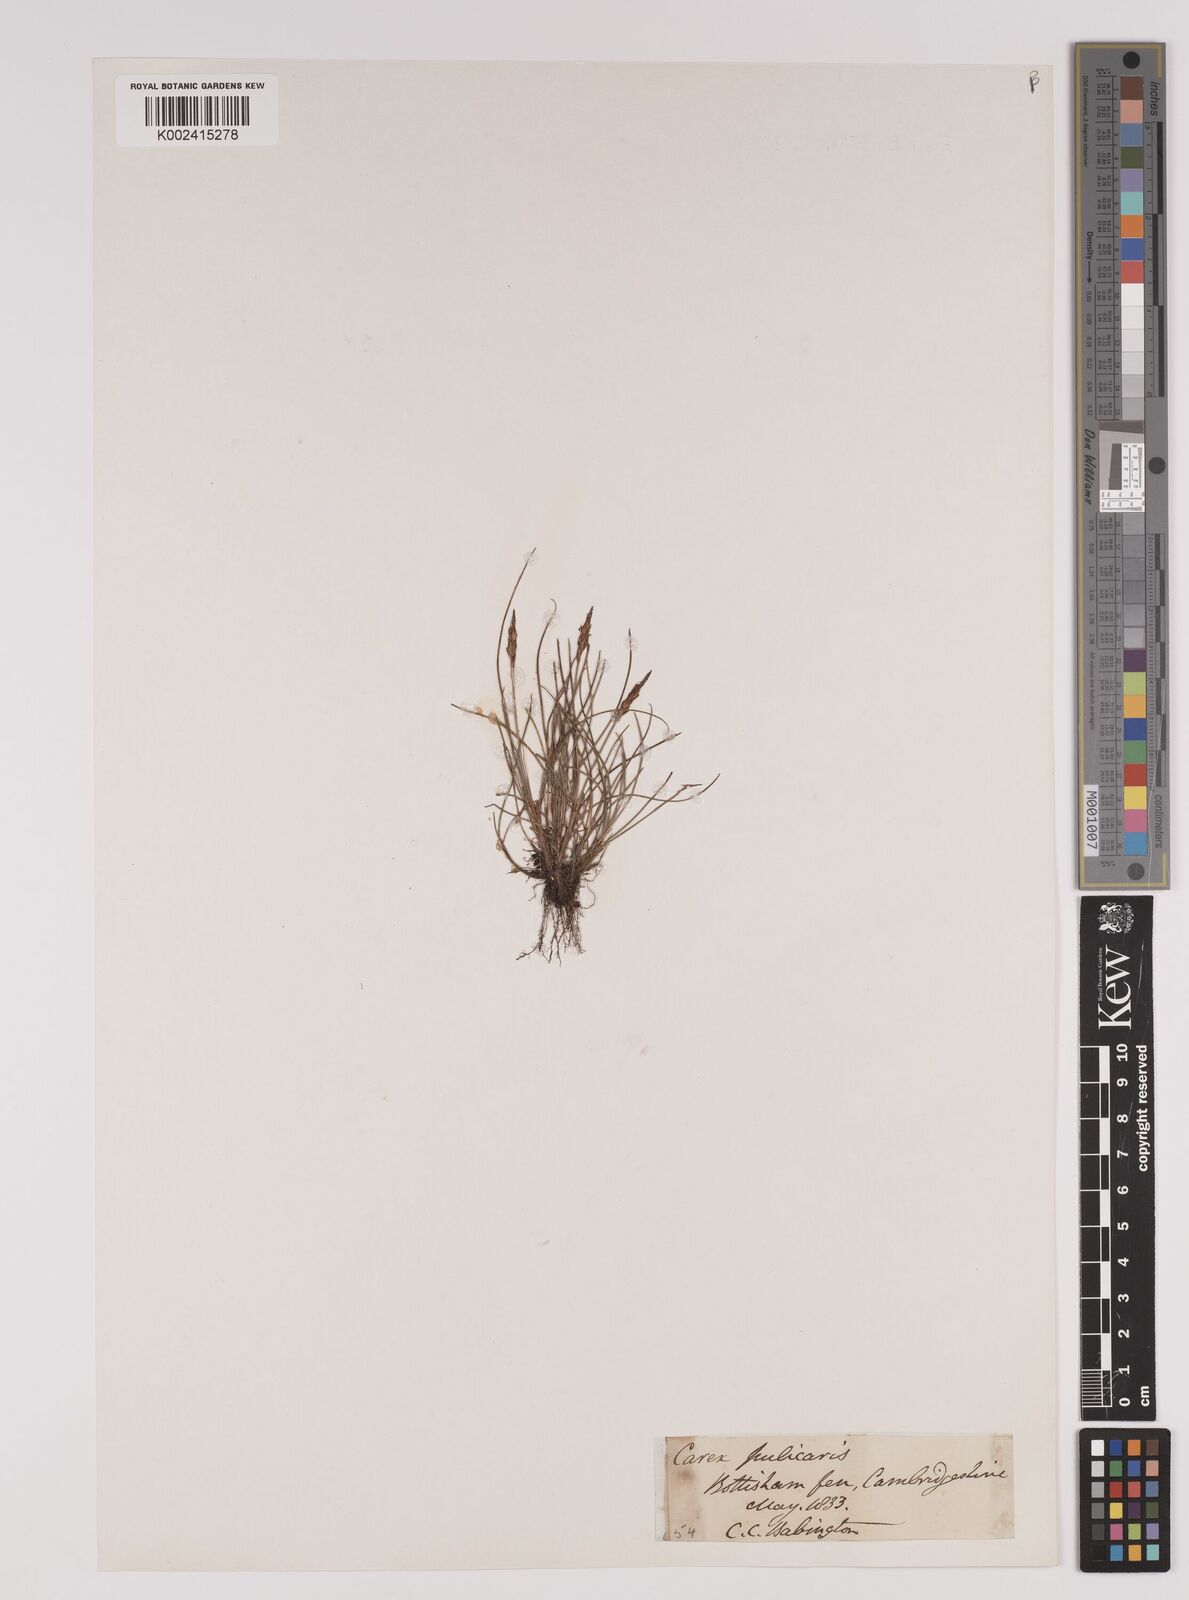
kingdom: Plantae
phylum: Tracheophyta
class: Liliopsida
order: Poales
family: Cyperaceae
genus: Carex
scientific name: Carex pulicaris
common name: Flea sedge
